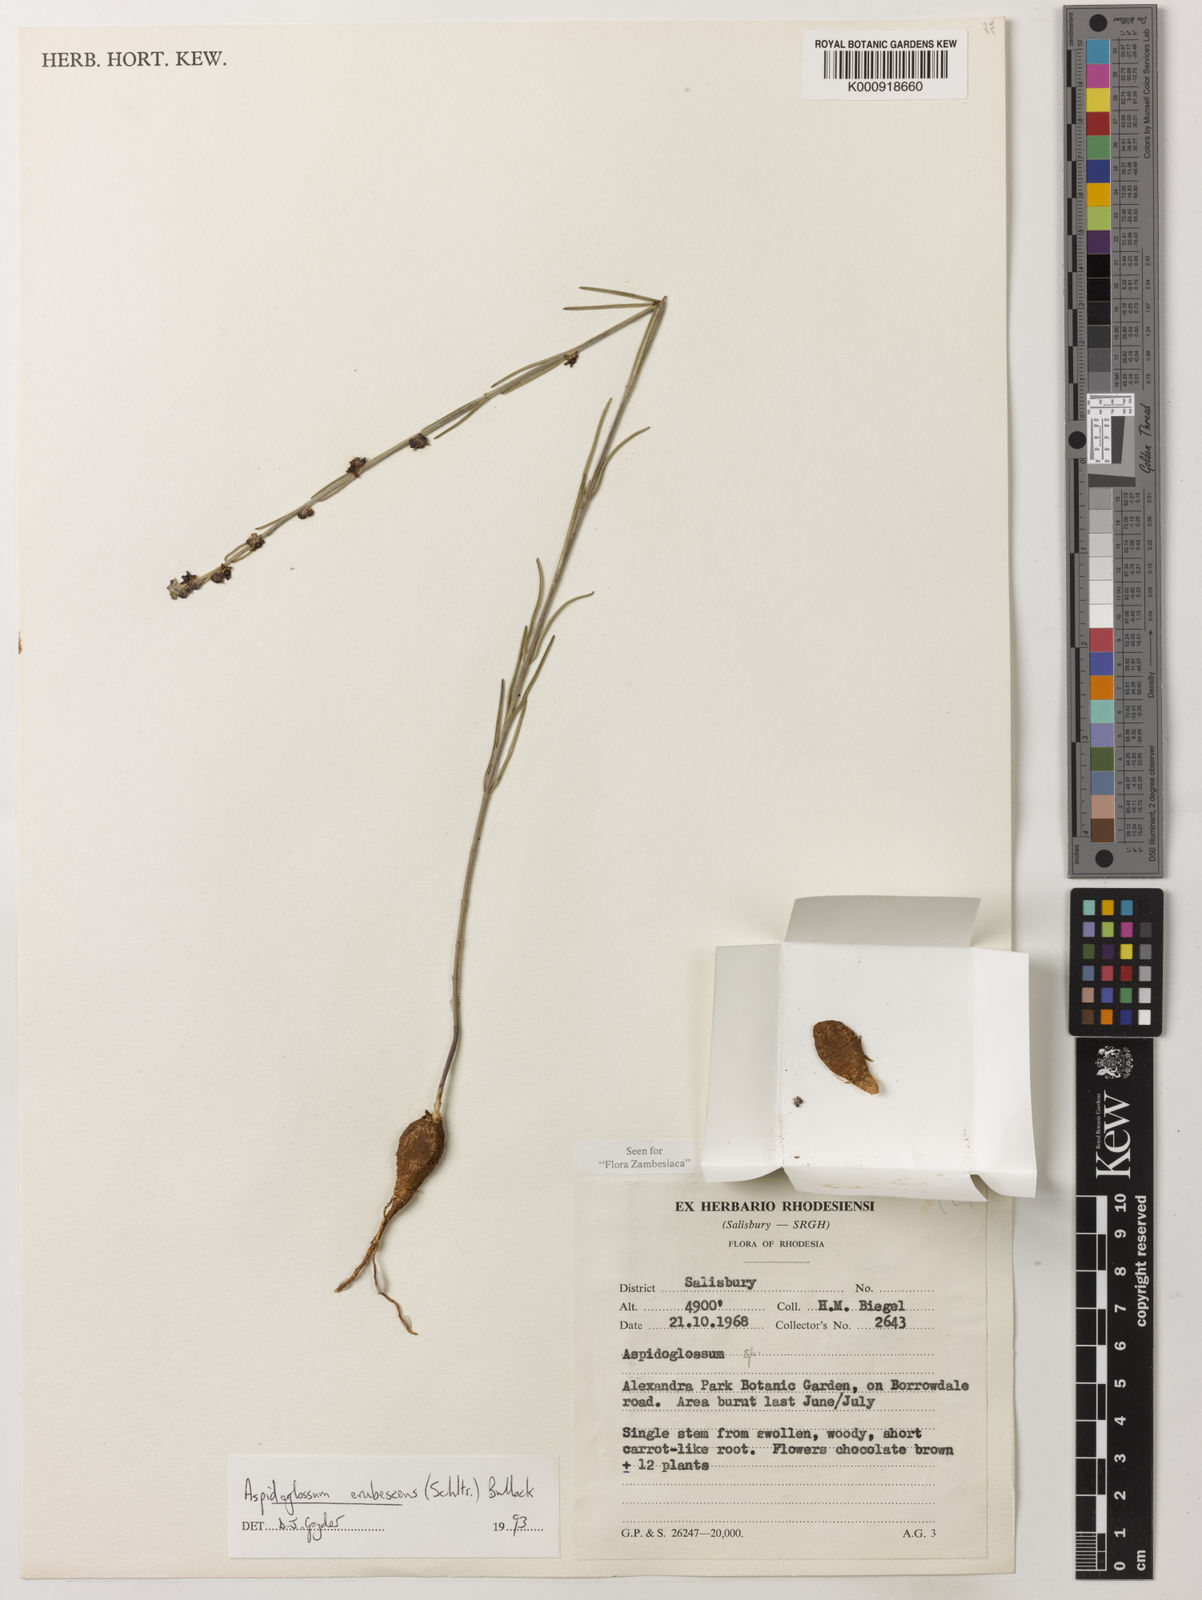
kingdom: Plantae
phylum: Tracheophyta
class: Magnoliopsida
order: Gentianales
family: Apocynaceae
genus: Aspidoglossum
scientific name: Aspidoglossum erubescens
